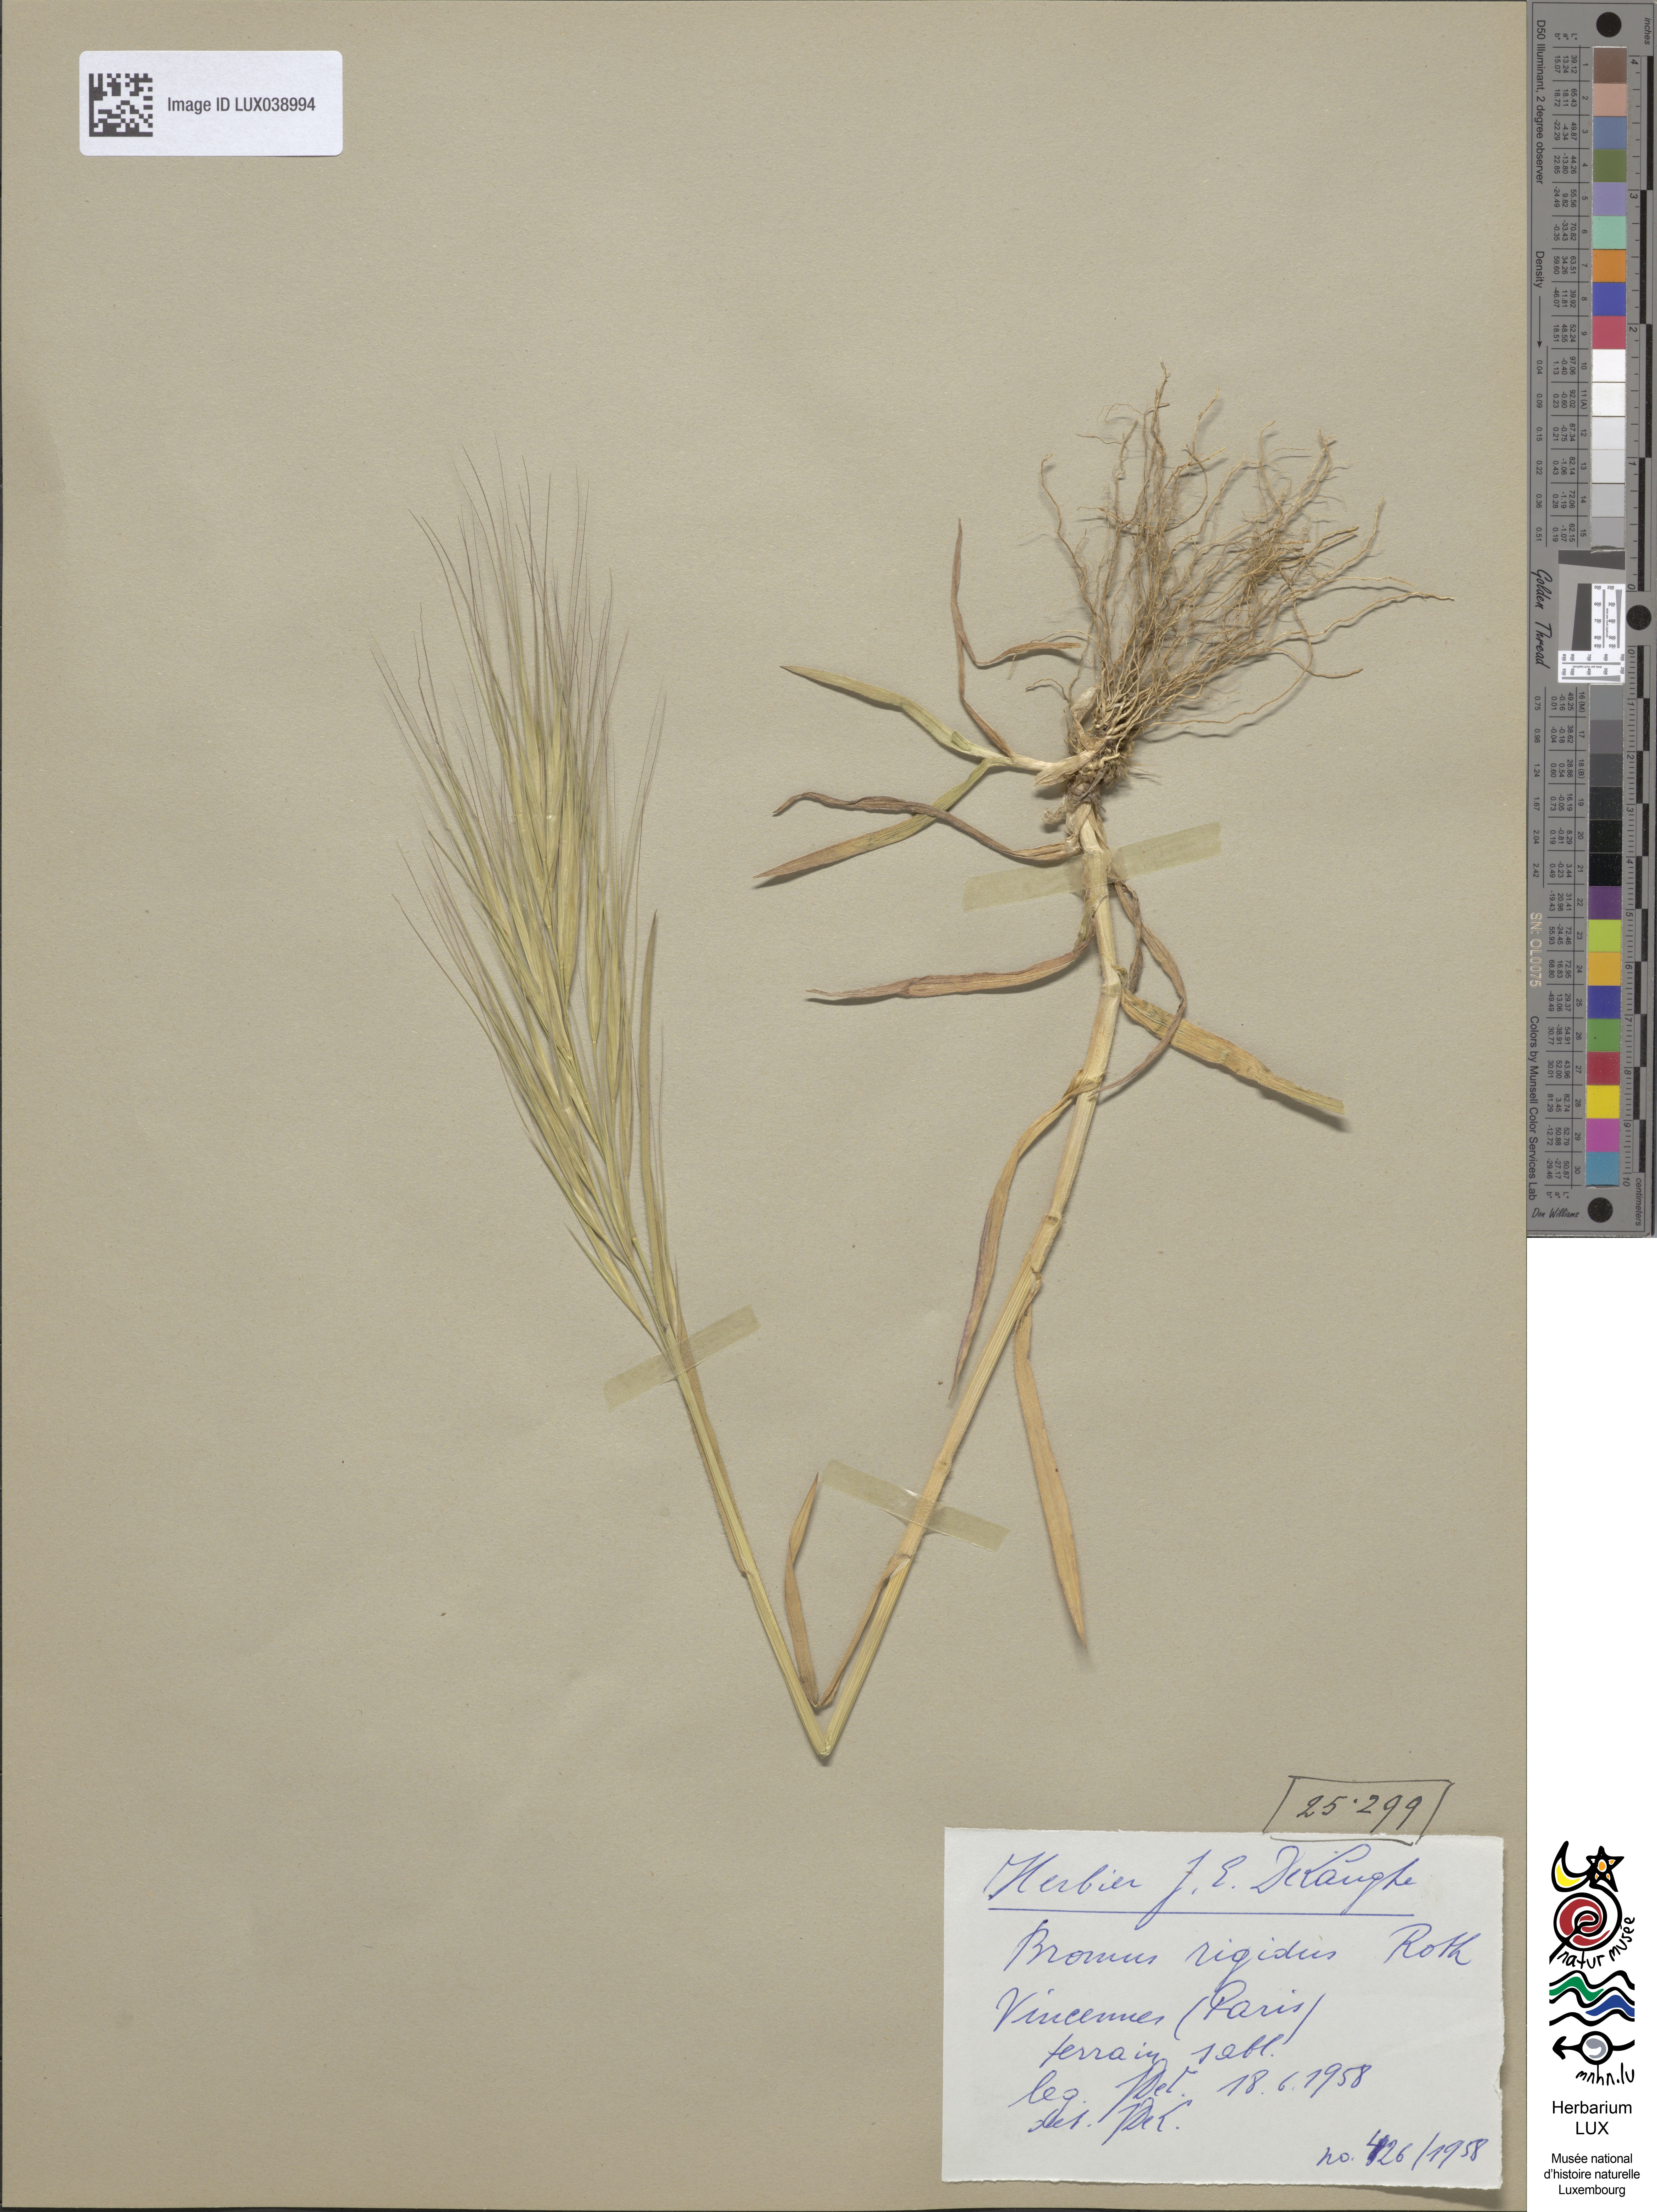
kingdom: Plantae
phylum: Tracheophyta
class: Liliopsida
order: Poales
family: Poaceae
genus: Bromus
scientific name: Bromus rigidus
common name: Ripgut brome
